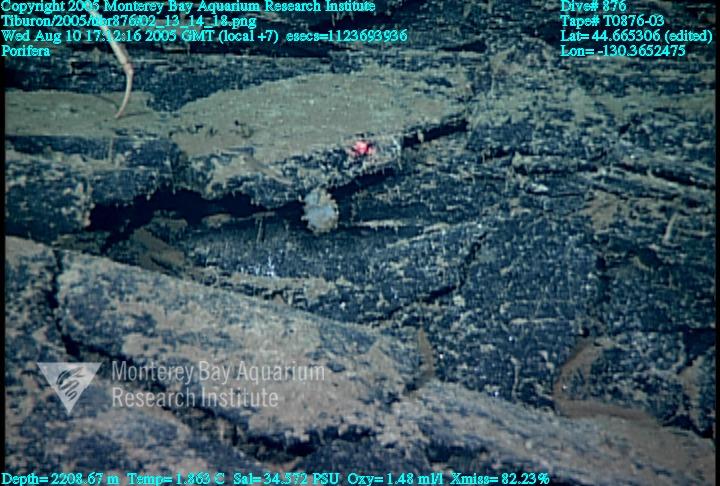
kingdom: Animalia
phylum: Porifera
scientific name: Porifera
